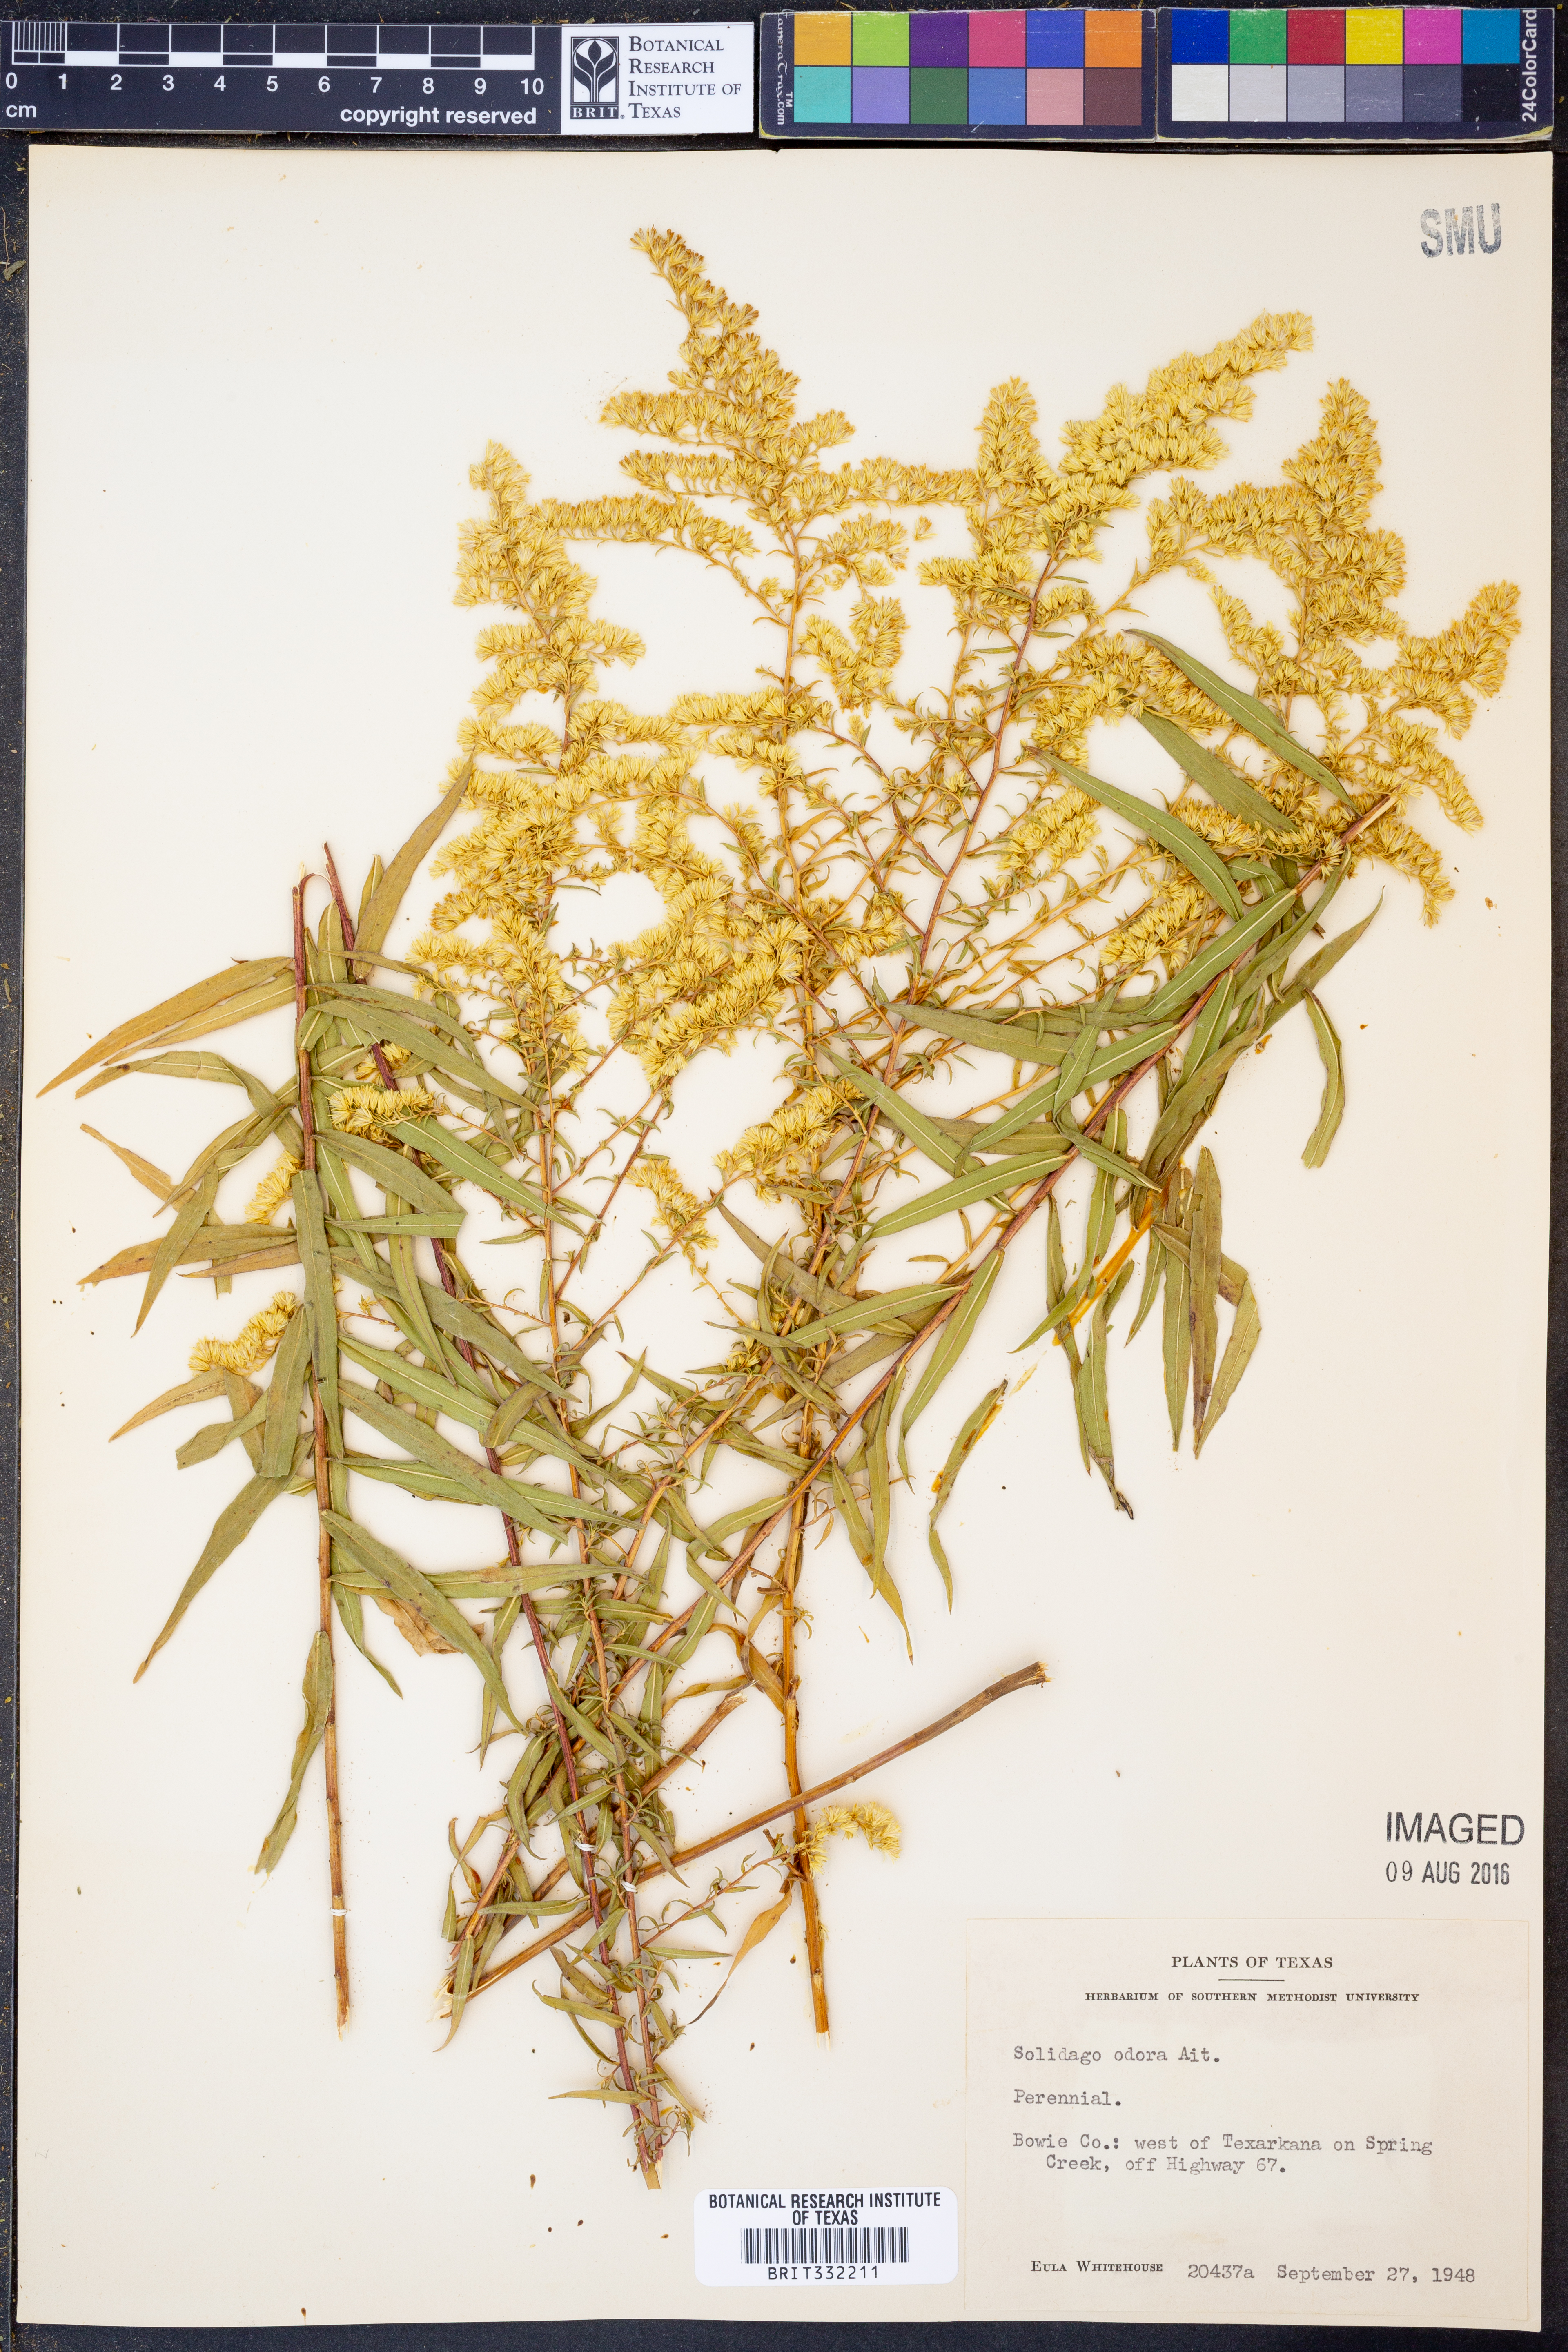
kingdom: Plantae
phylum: Tracheophyta
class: Magnoliopsida
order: Asterales
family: Asteraceae
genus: Solidago
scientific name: Solidago rugosa
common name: Rough-stemmed goldenrod
